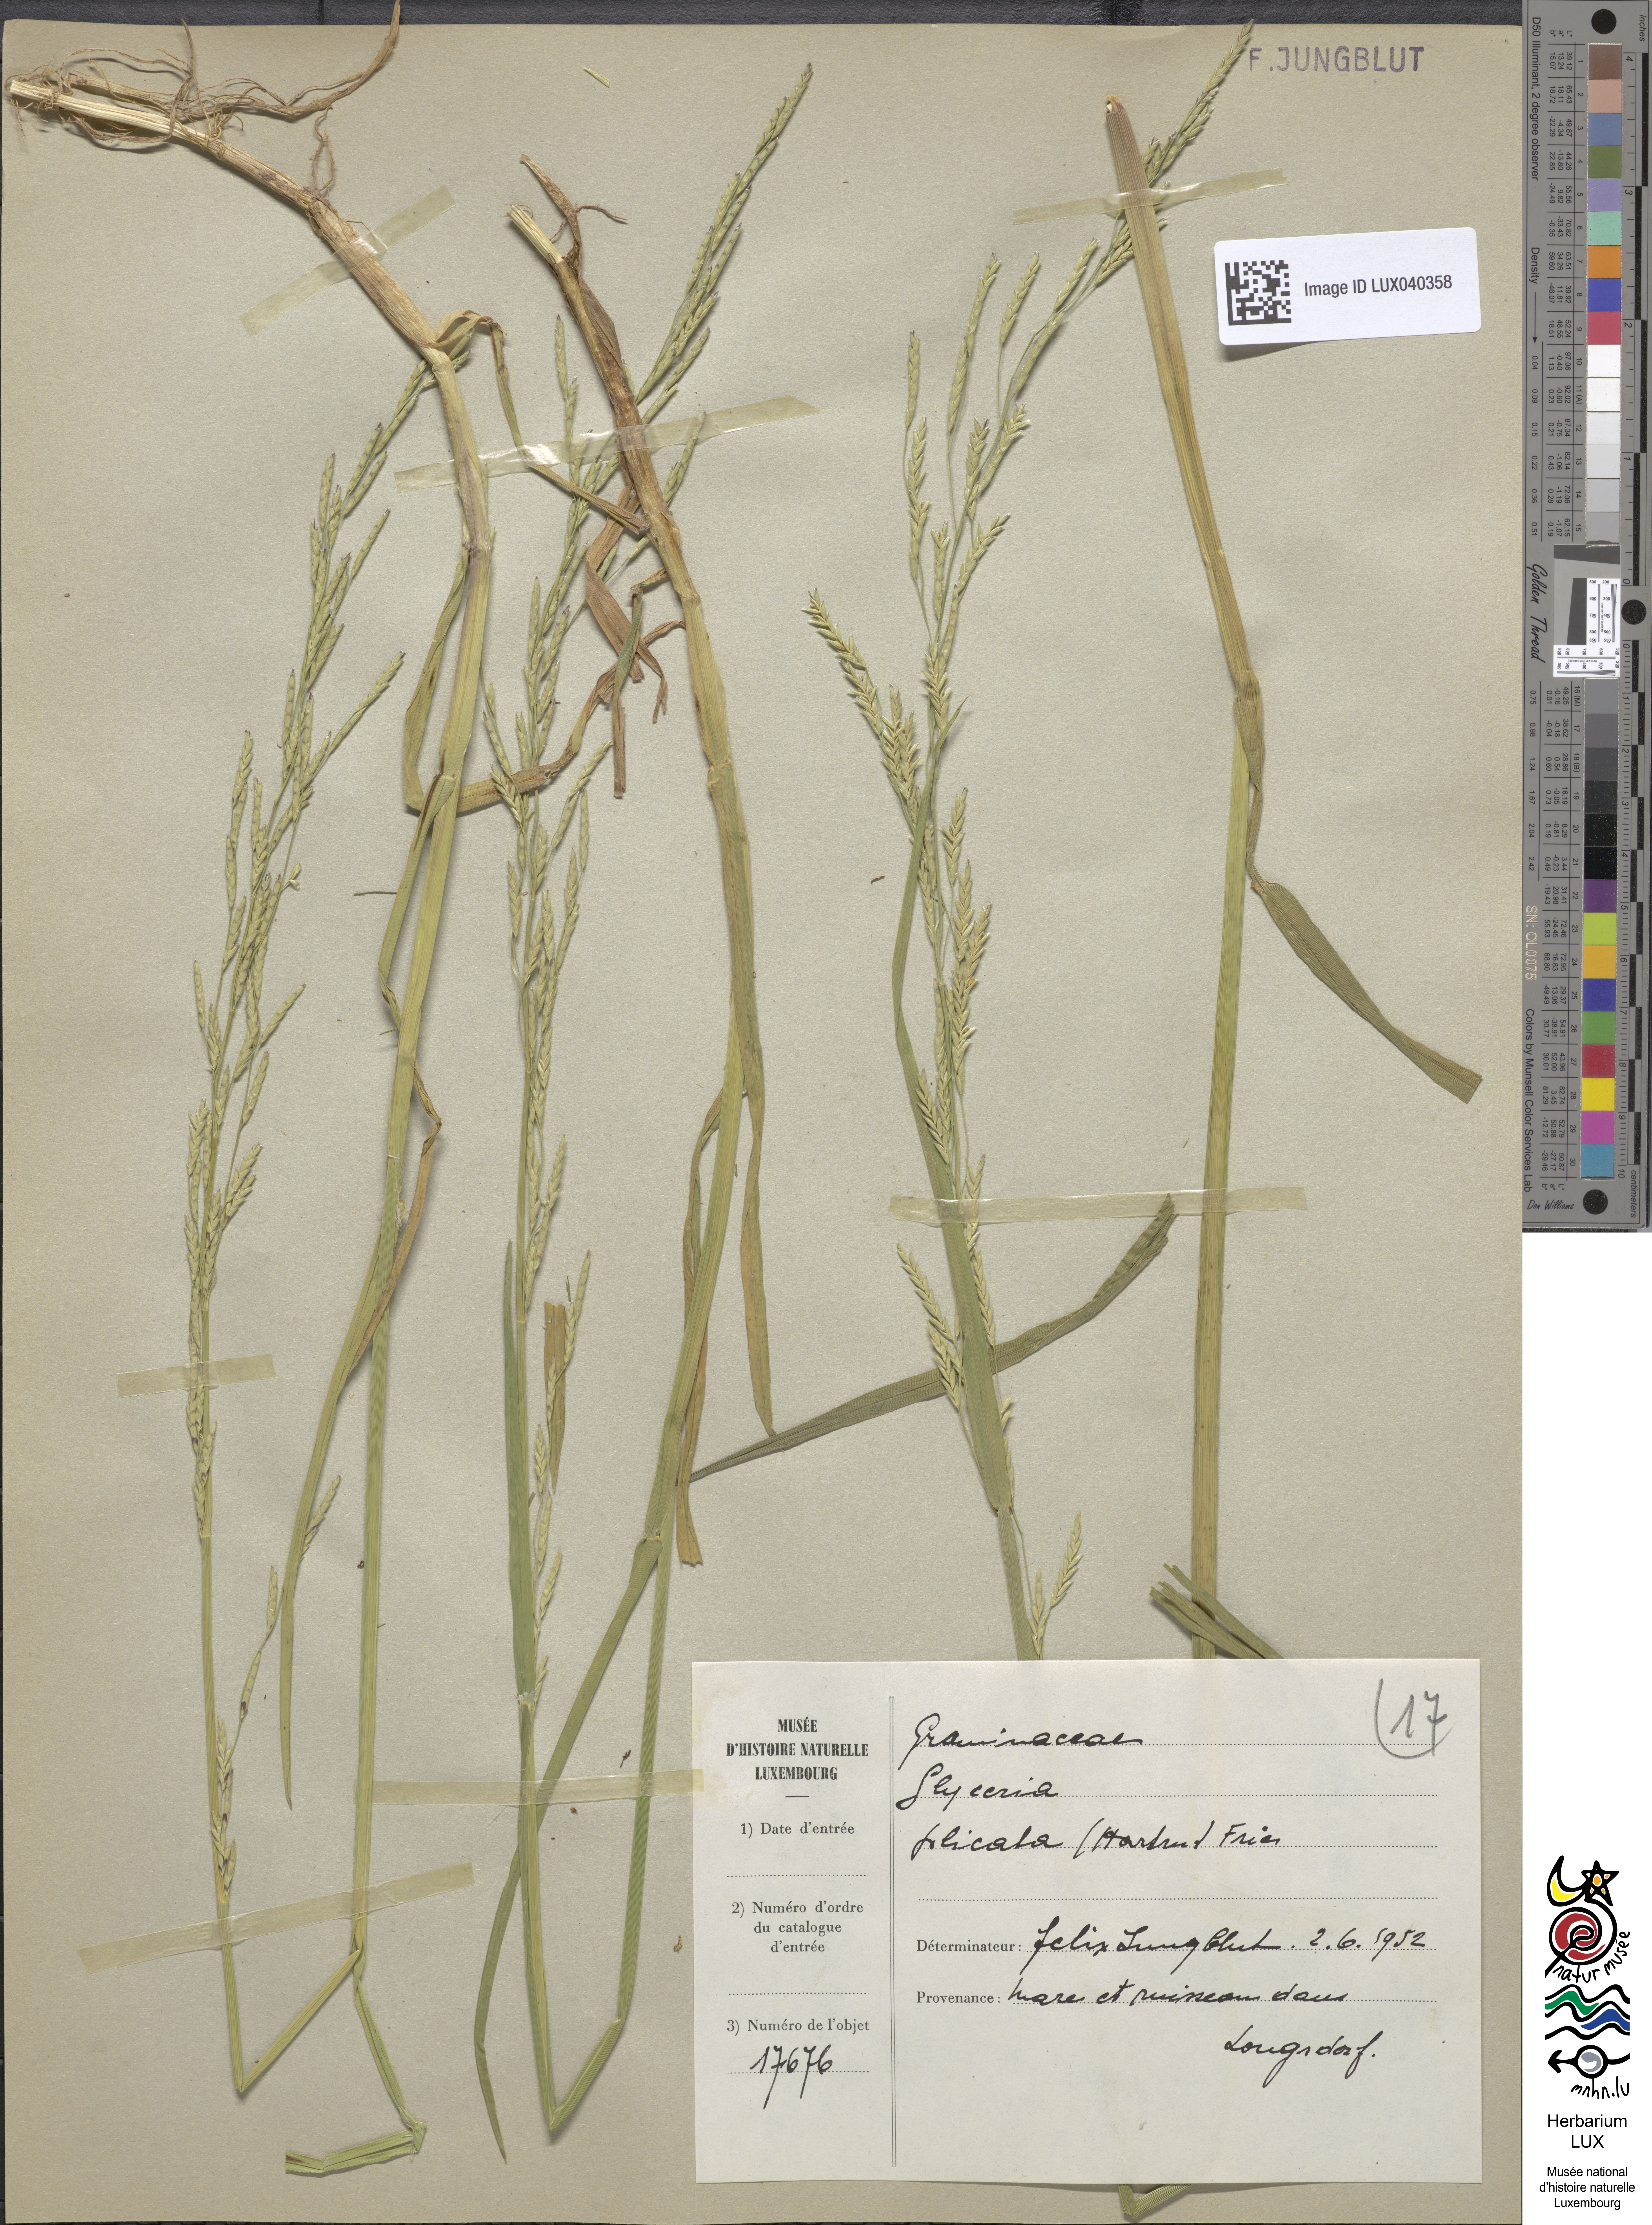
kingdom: Plantae
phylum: Tracheophyta
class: Liliopsida
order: Poales
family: Poaceae
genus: Glyceria
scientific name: Glyceria notata
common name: Plicate sweet-grass
